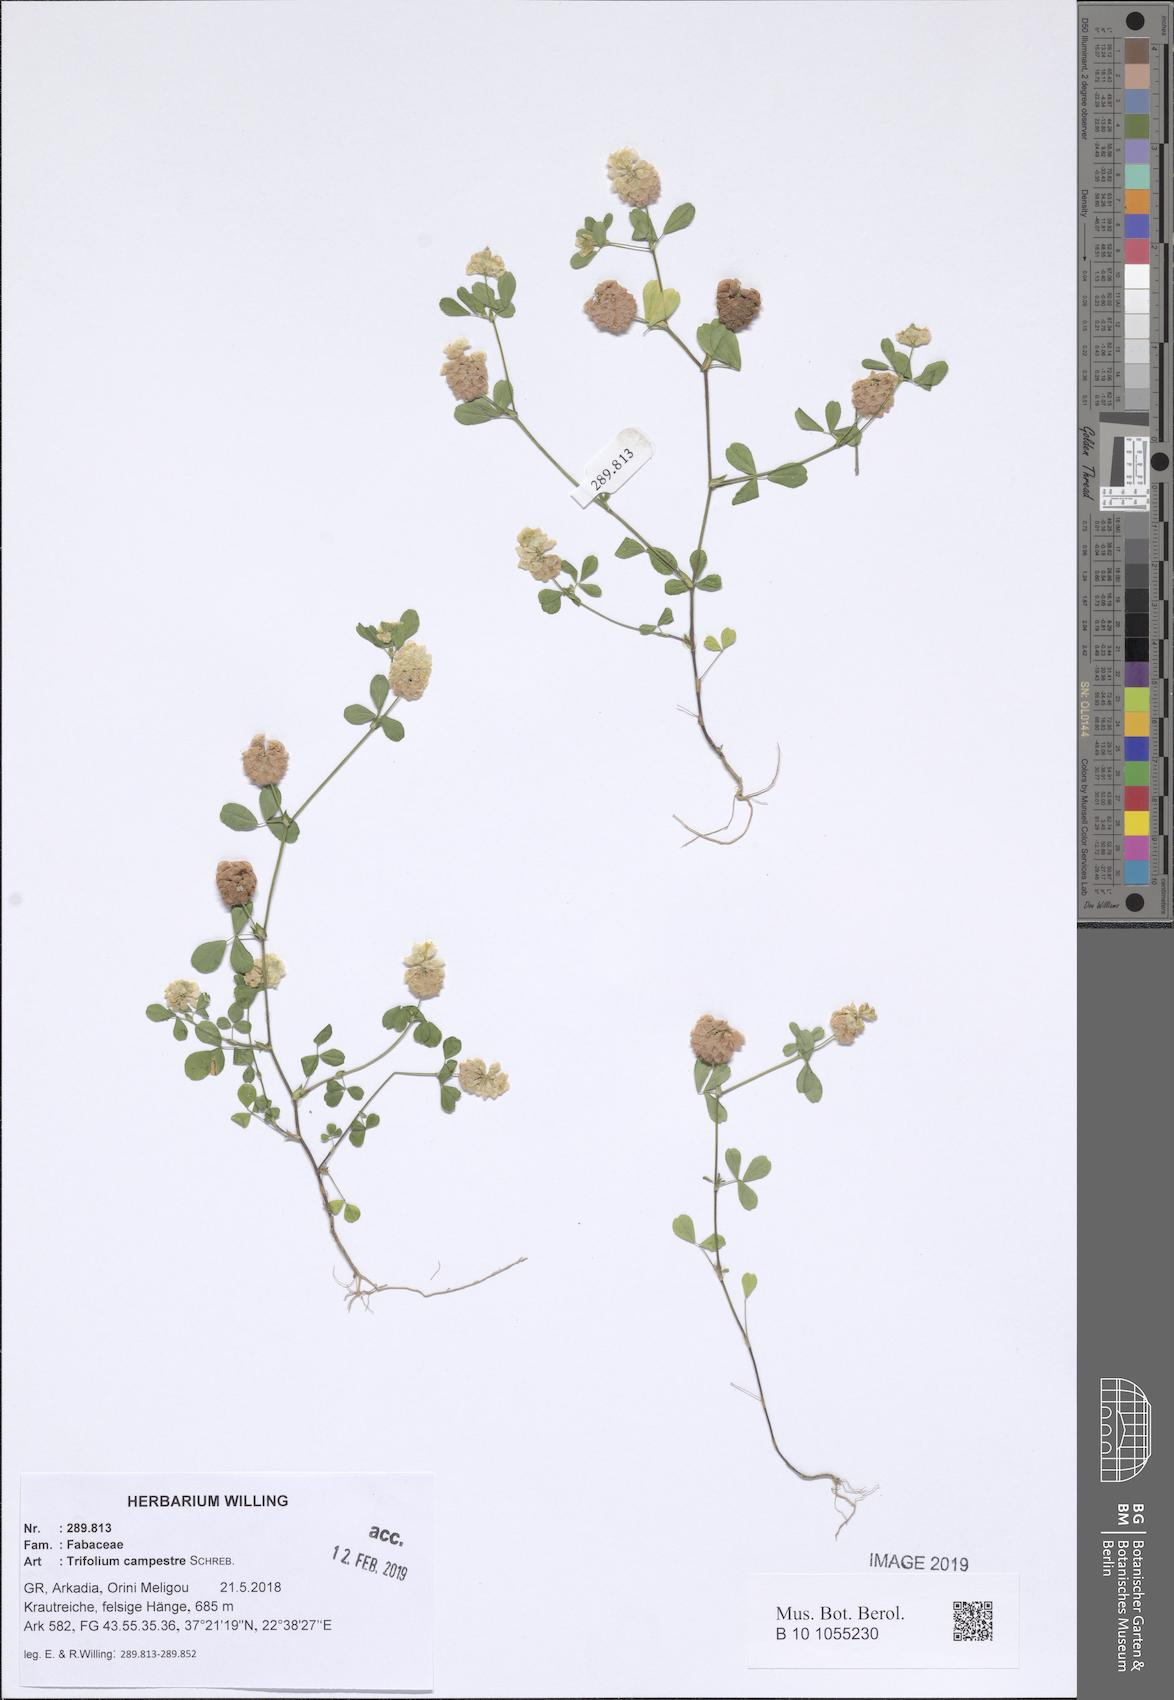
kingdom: Plantae
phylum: Tracheophyta
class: Magnoliopsida
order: Fabales
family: Fabaceae
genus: Trifolium
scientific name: Trifolium campestre
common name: Field clover
